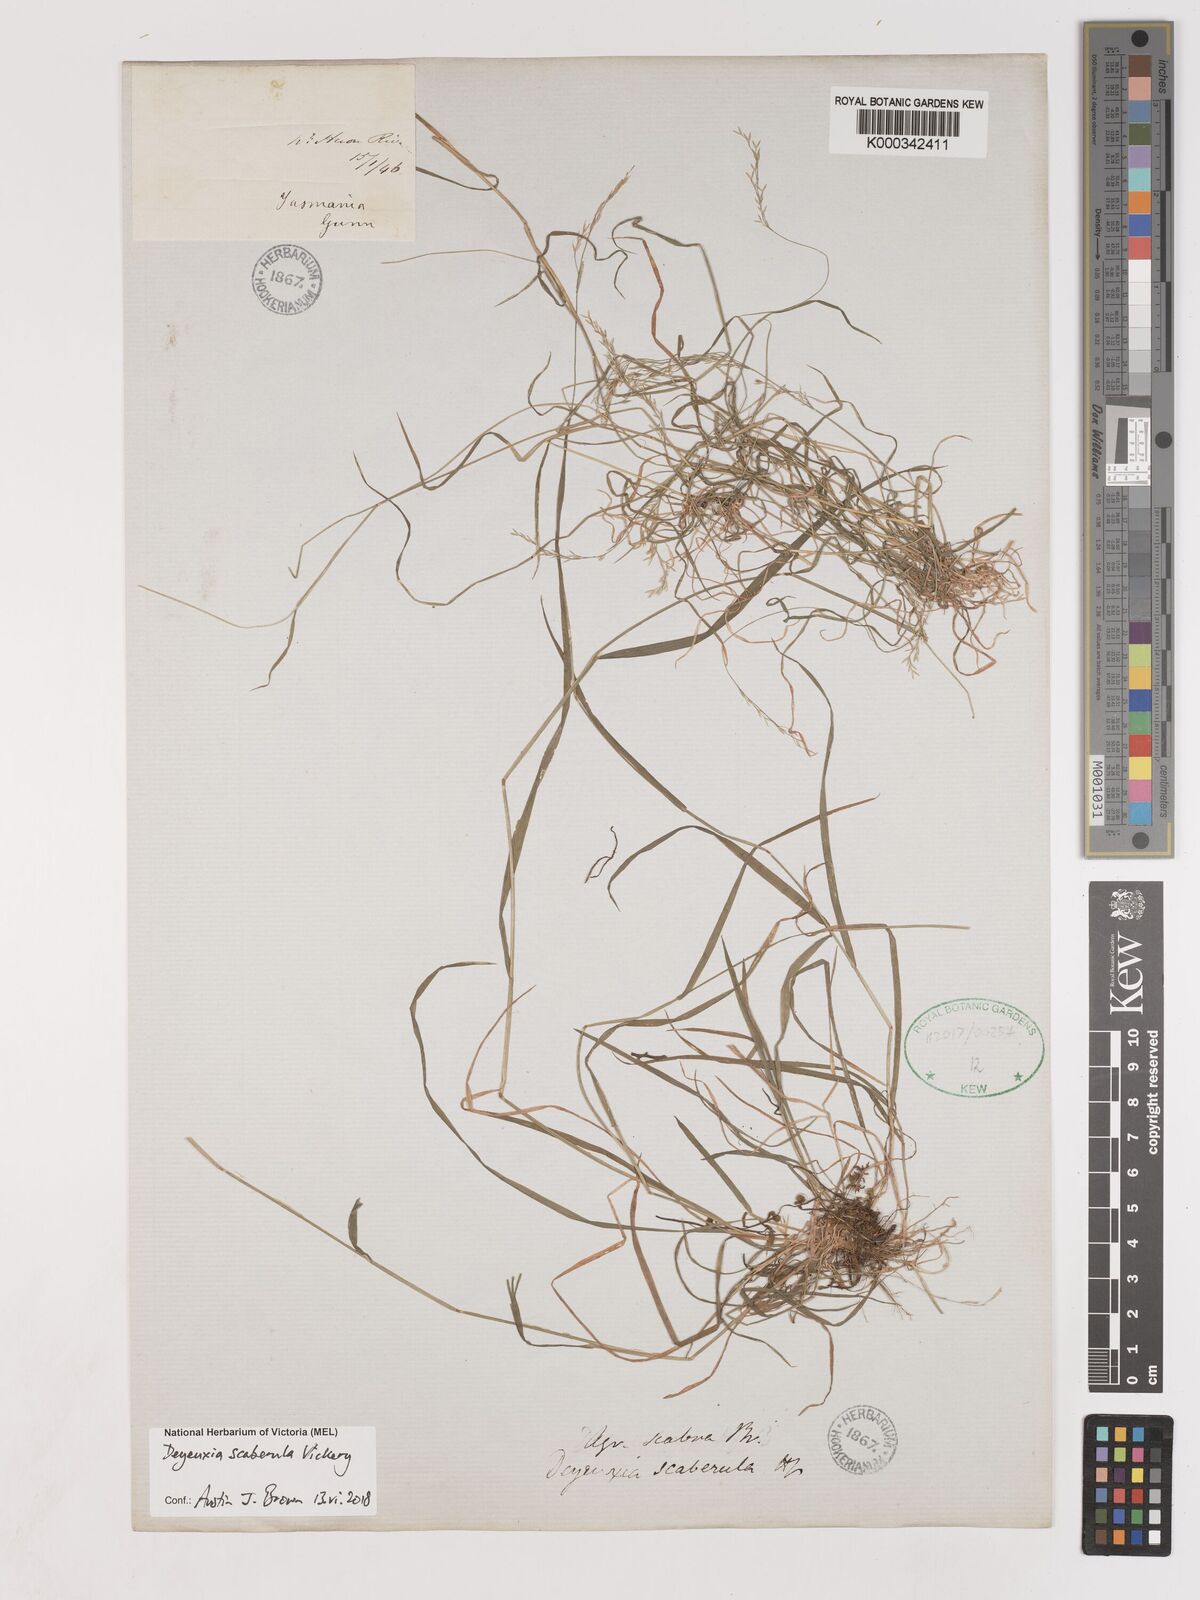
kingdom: Plantae
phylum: Tracheophyta
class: Liliopsida
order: Poales
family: Poaceae
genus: Calamagrostis
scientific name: Calamagrostis austroscaberula
